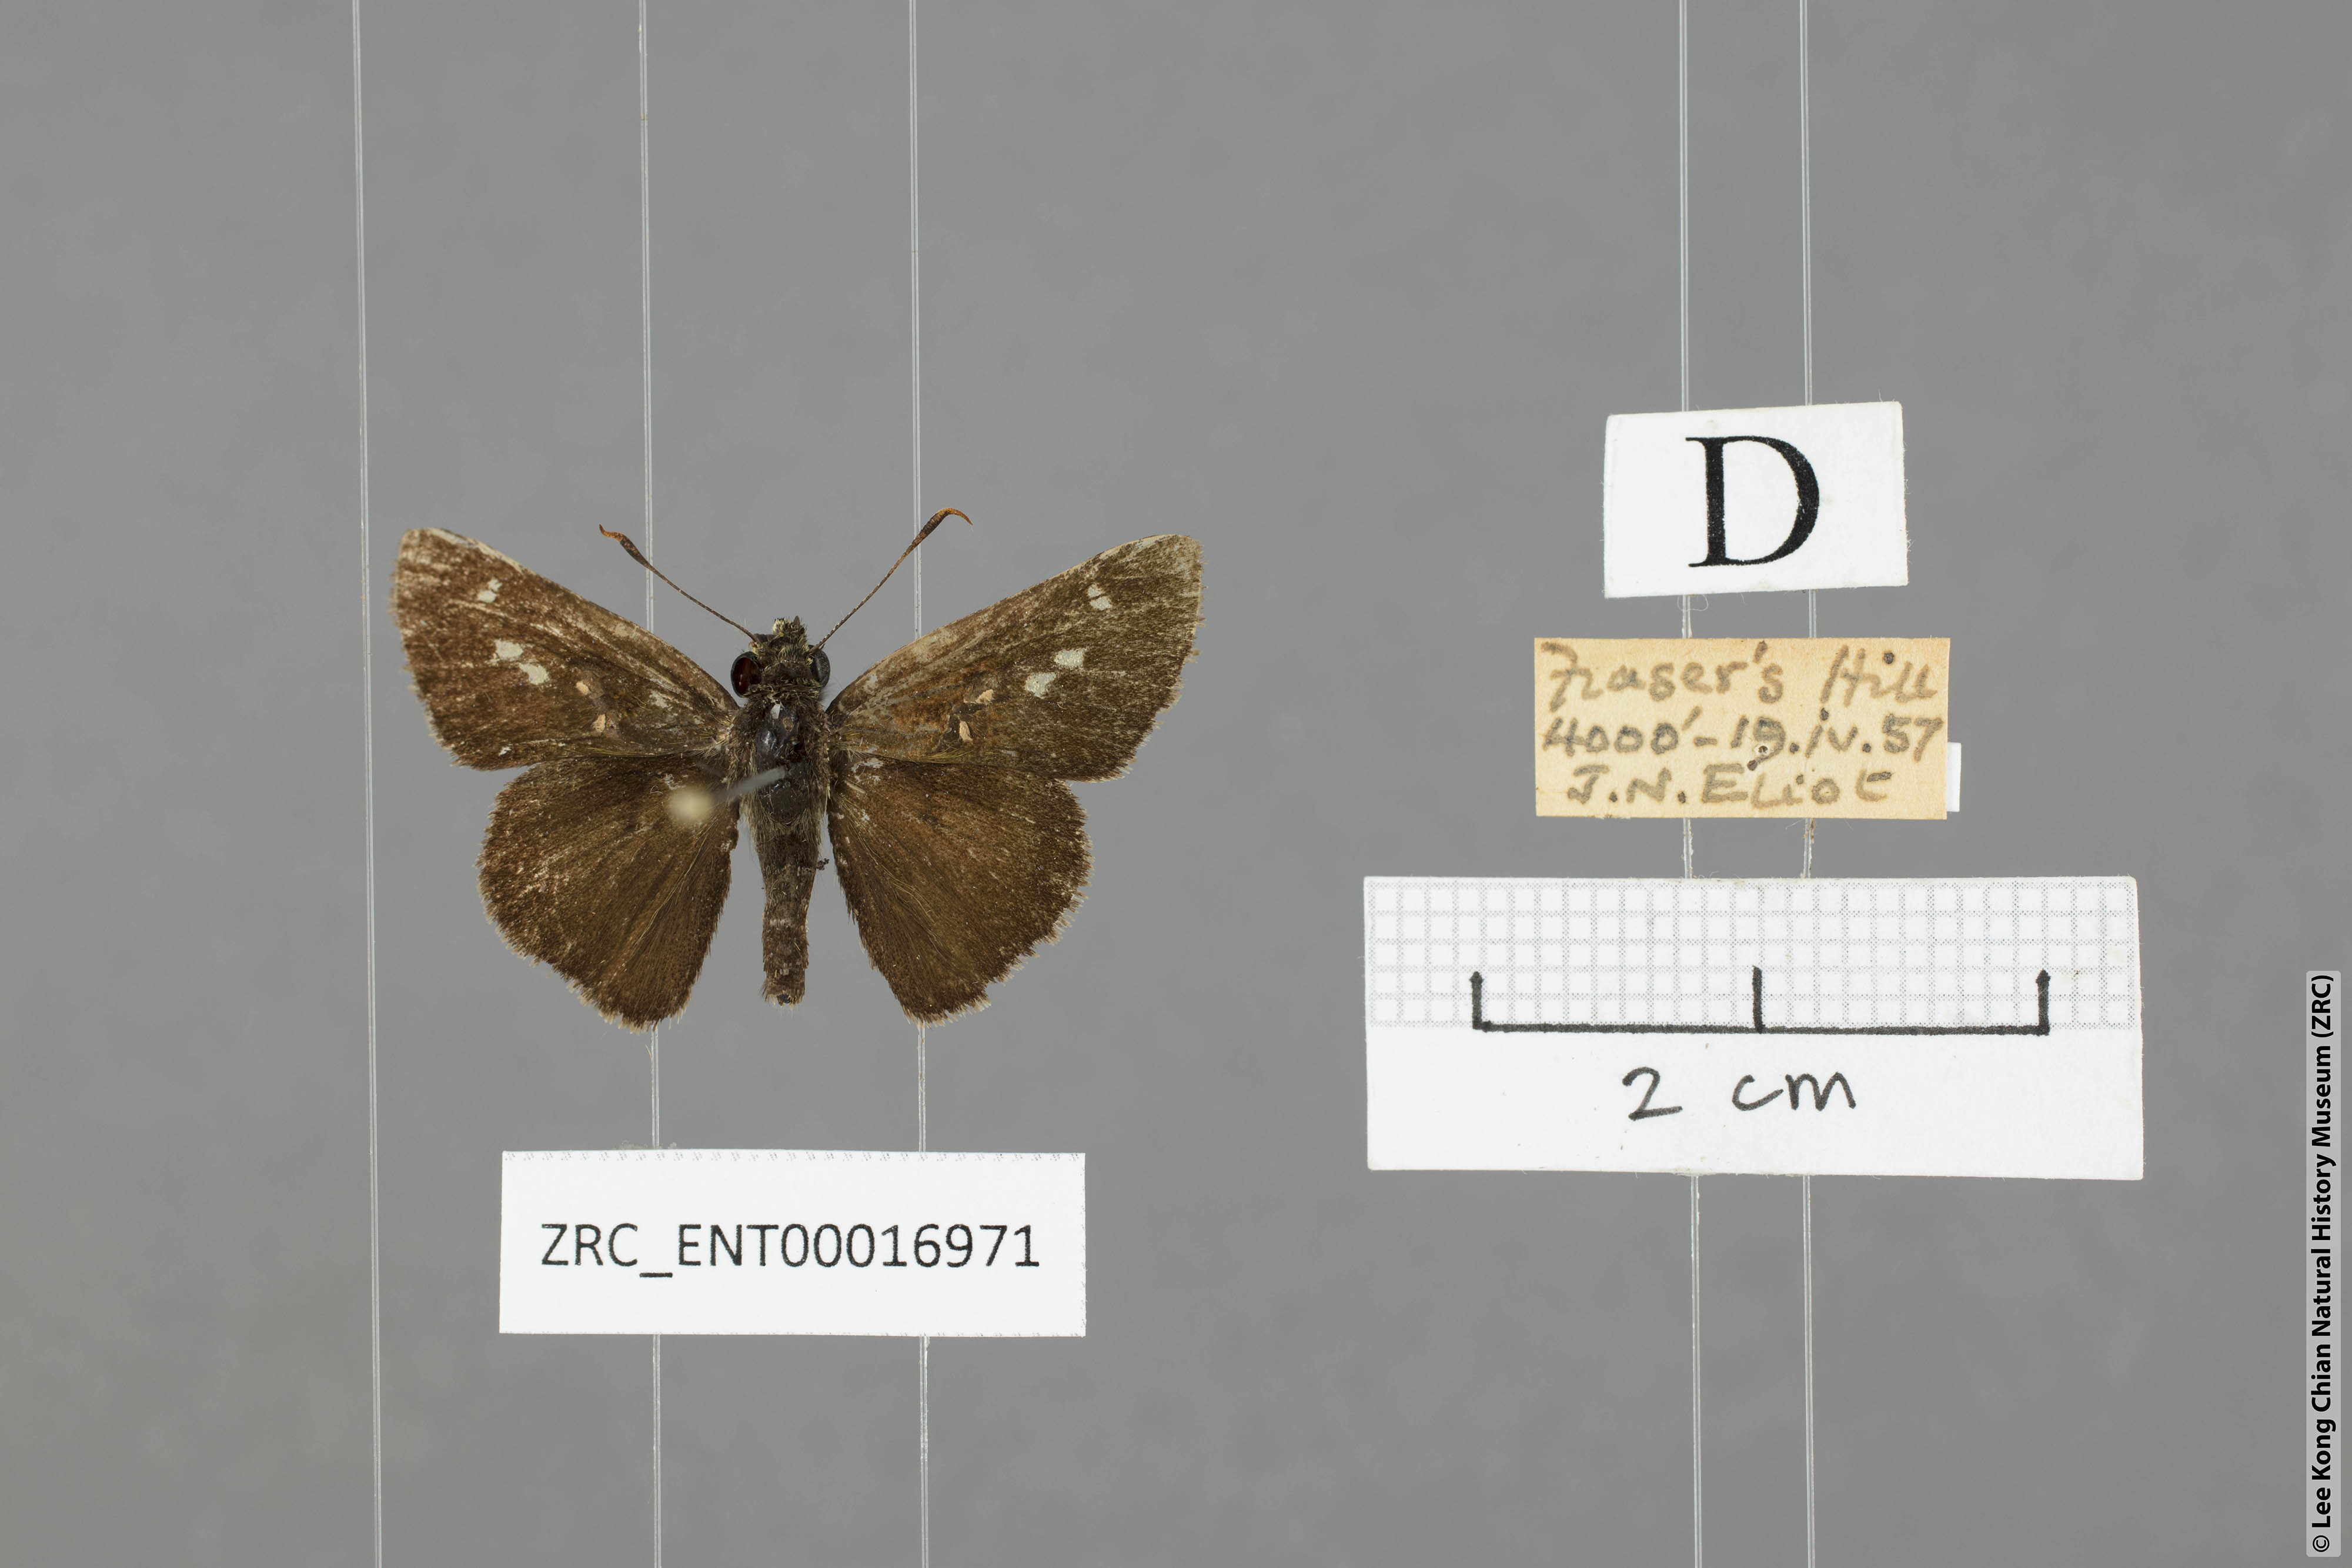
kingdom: Animalia
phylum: Arthropoda
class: Insecta
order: Lepidoptera
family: Hesperiidae
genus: Halpe
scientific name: Halpe clara
